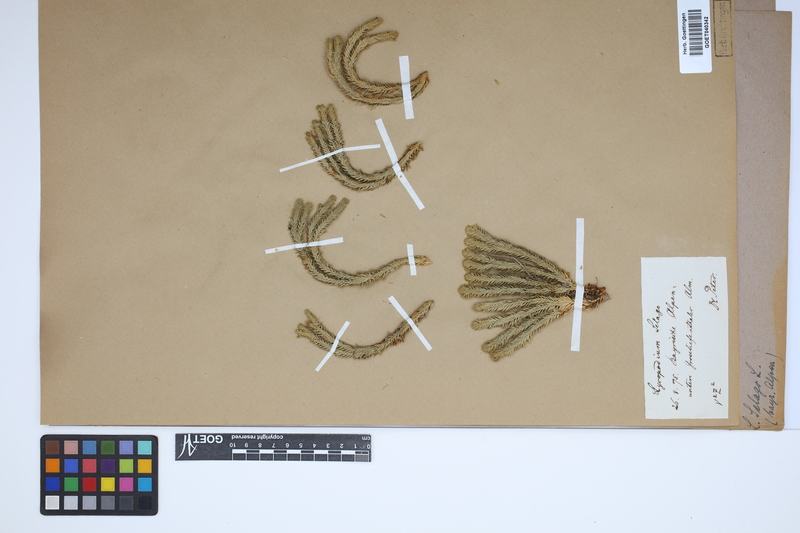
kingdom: Plantae
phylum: Tracheophyta
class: Lycopodiopsida
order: Lycopodiales
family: Lycopodiaceae
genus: Huperzia
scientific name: Huperzia selago
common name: Northern firmoss
